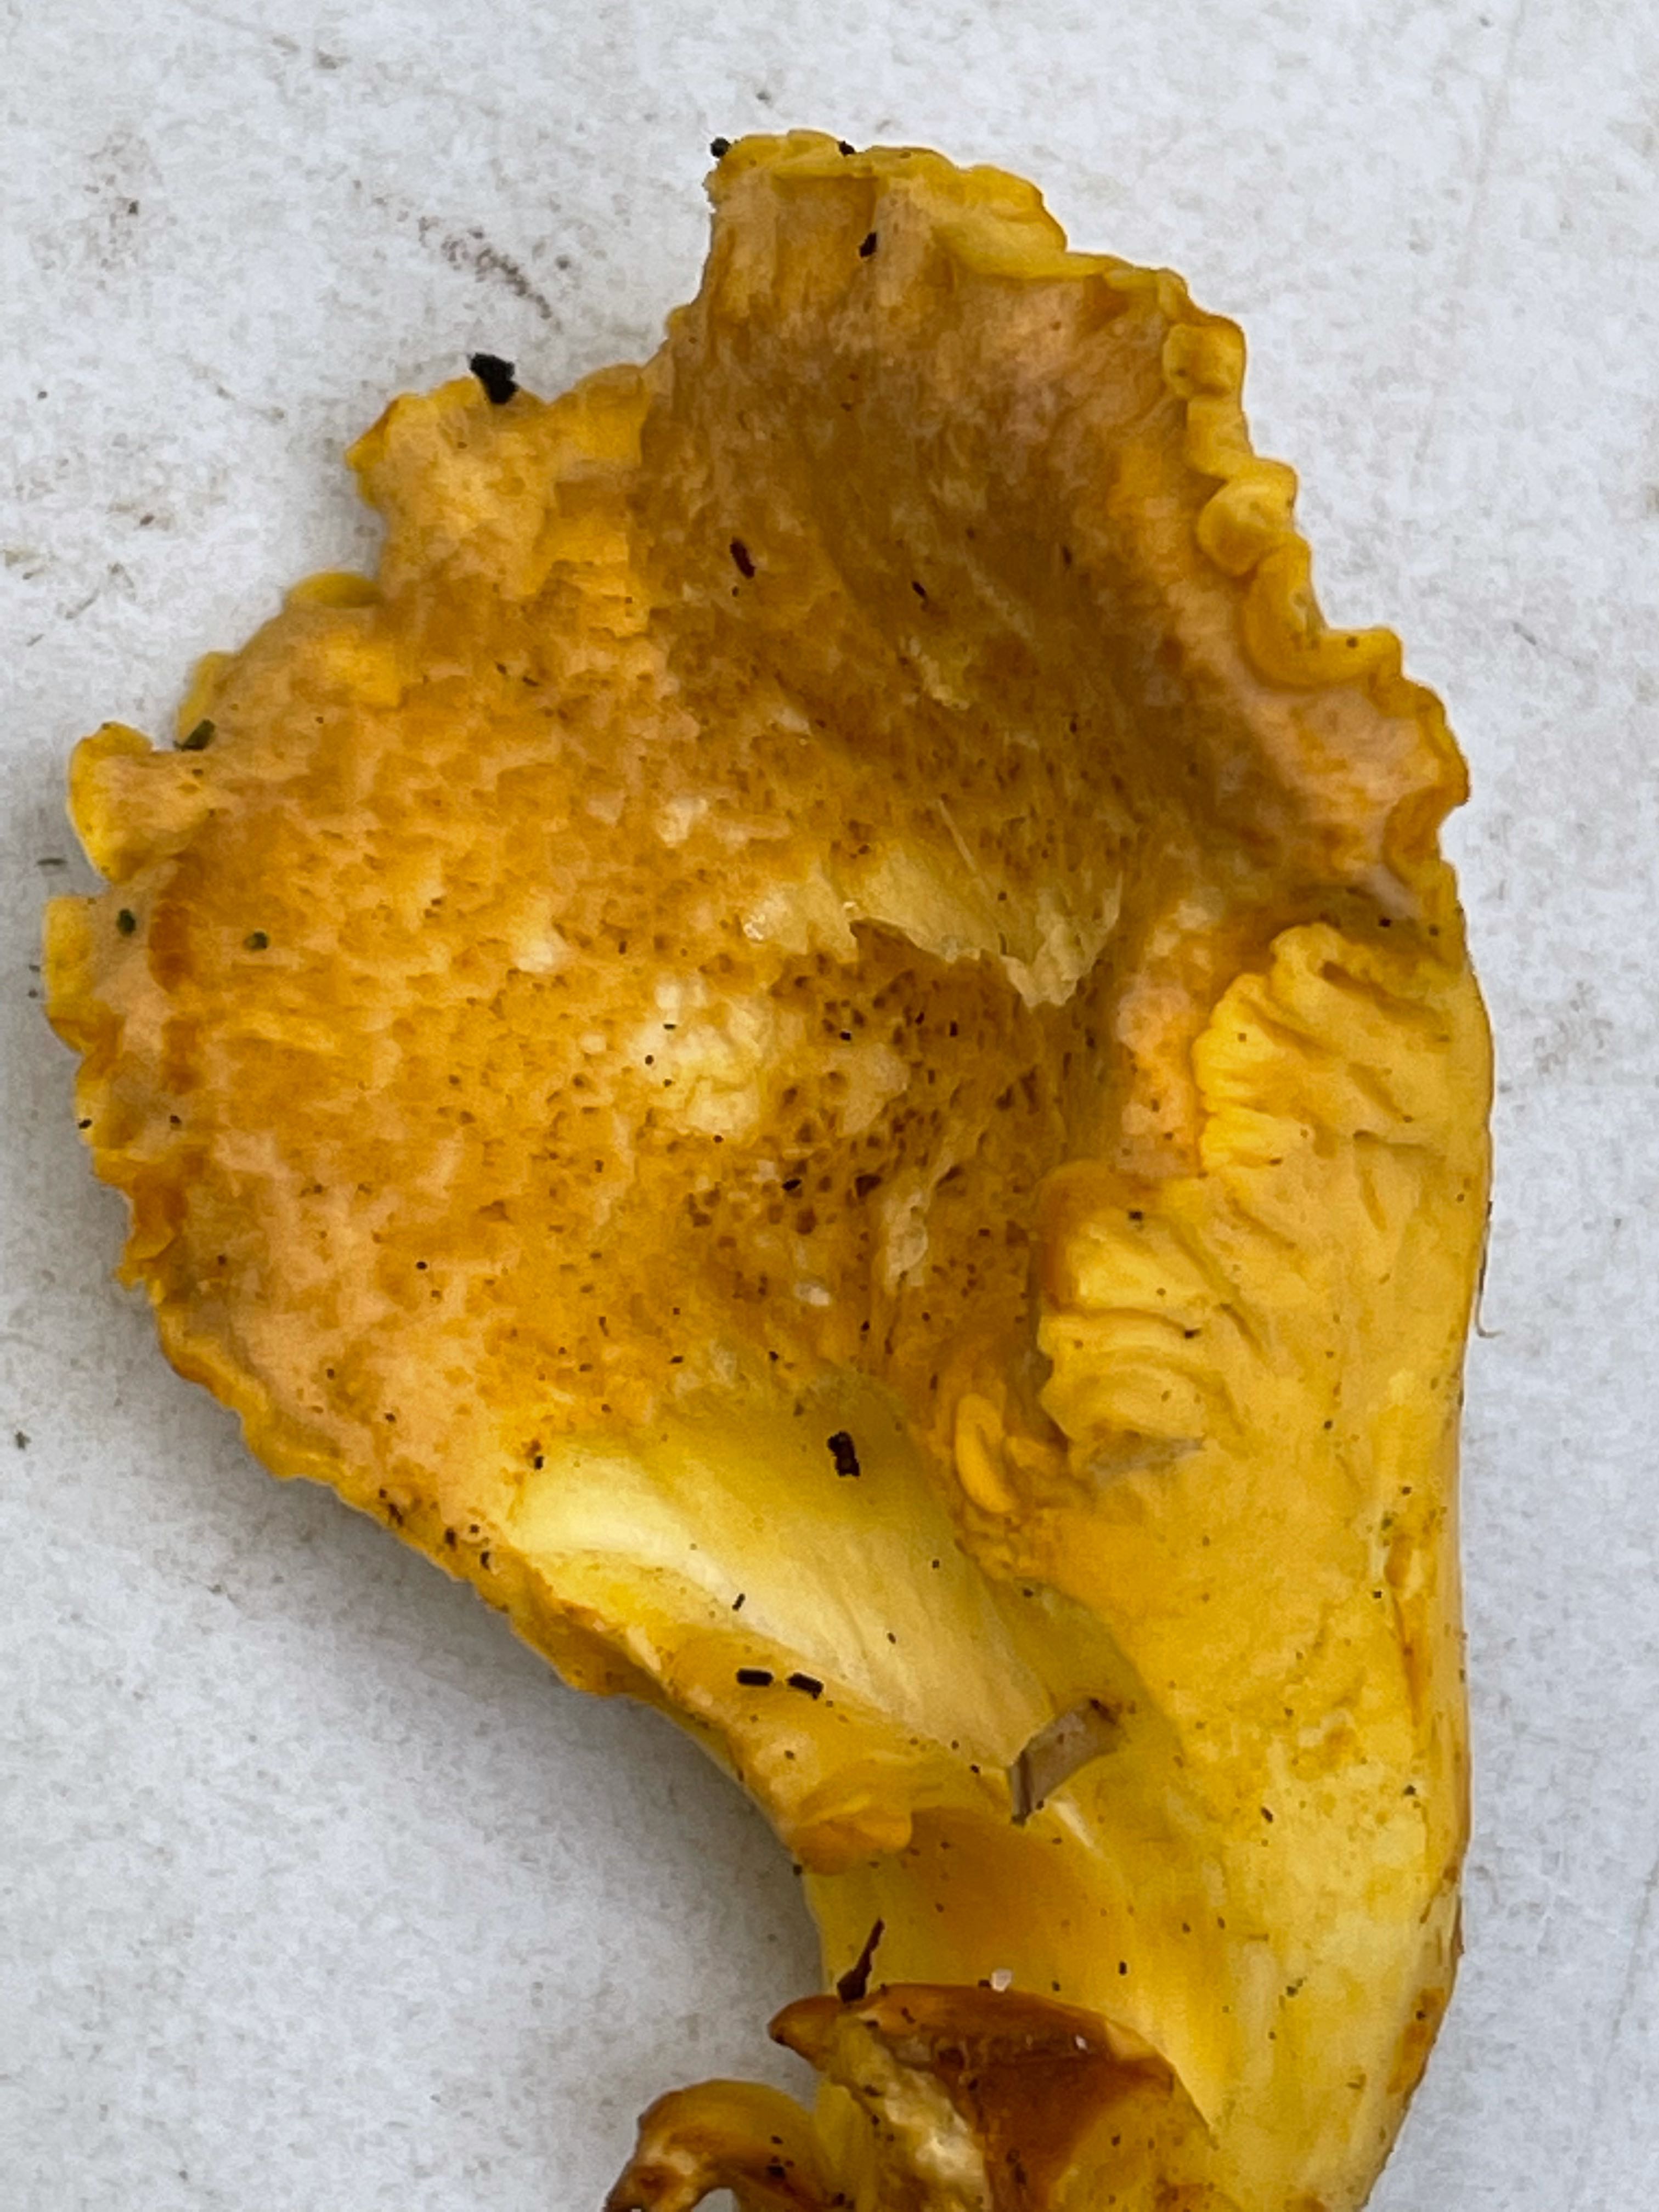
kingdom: Fungi
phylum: Basidiomycota
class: Agaricomycetes
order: Cantharellales
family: Hydnaceae
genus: Cantharellus
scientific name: Cantharellus amethysteus
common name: ametyst-kantarel
